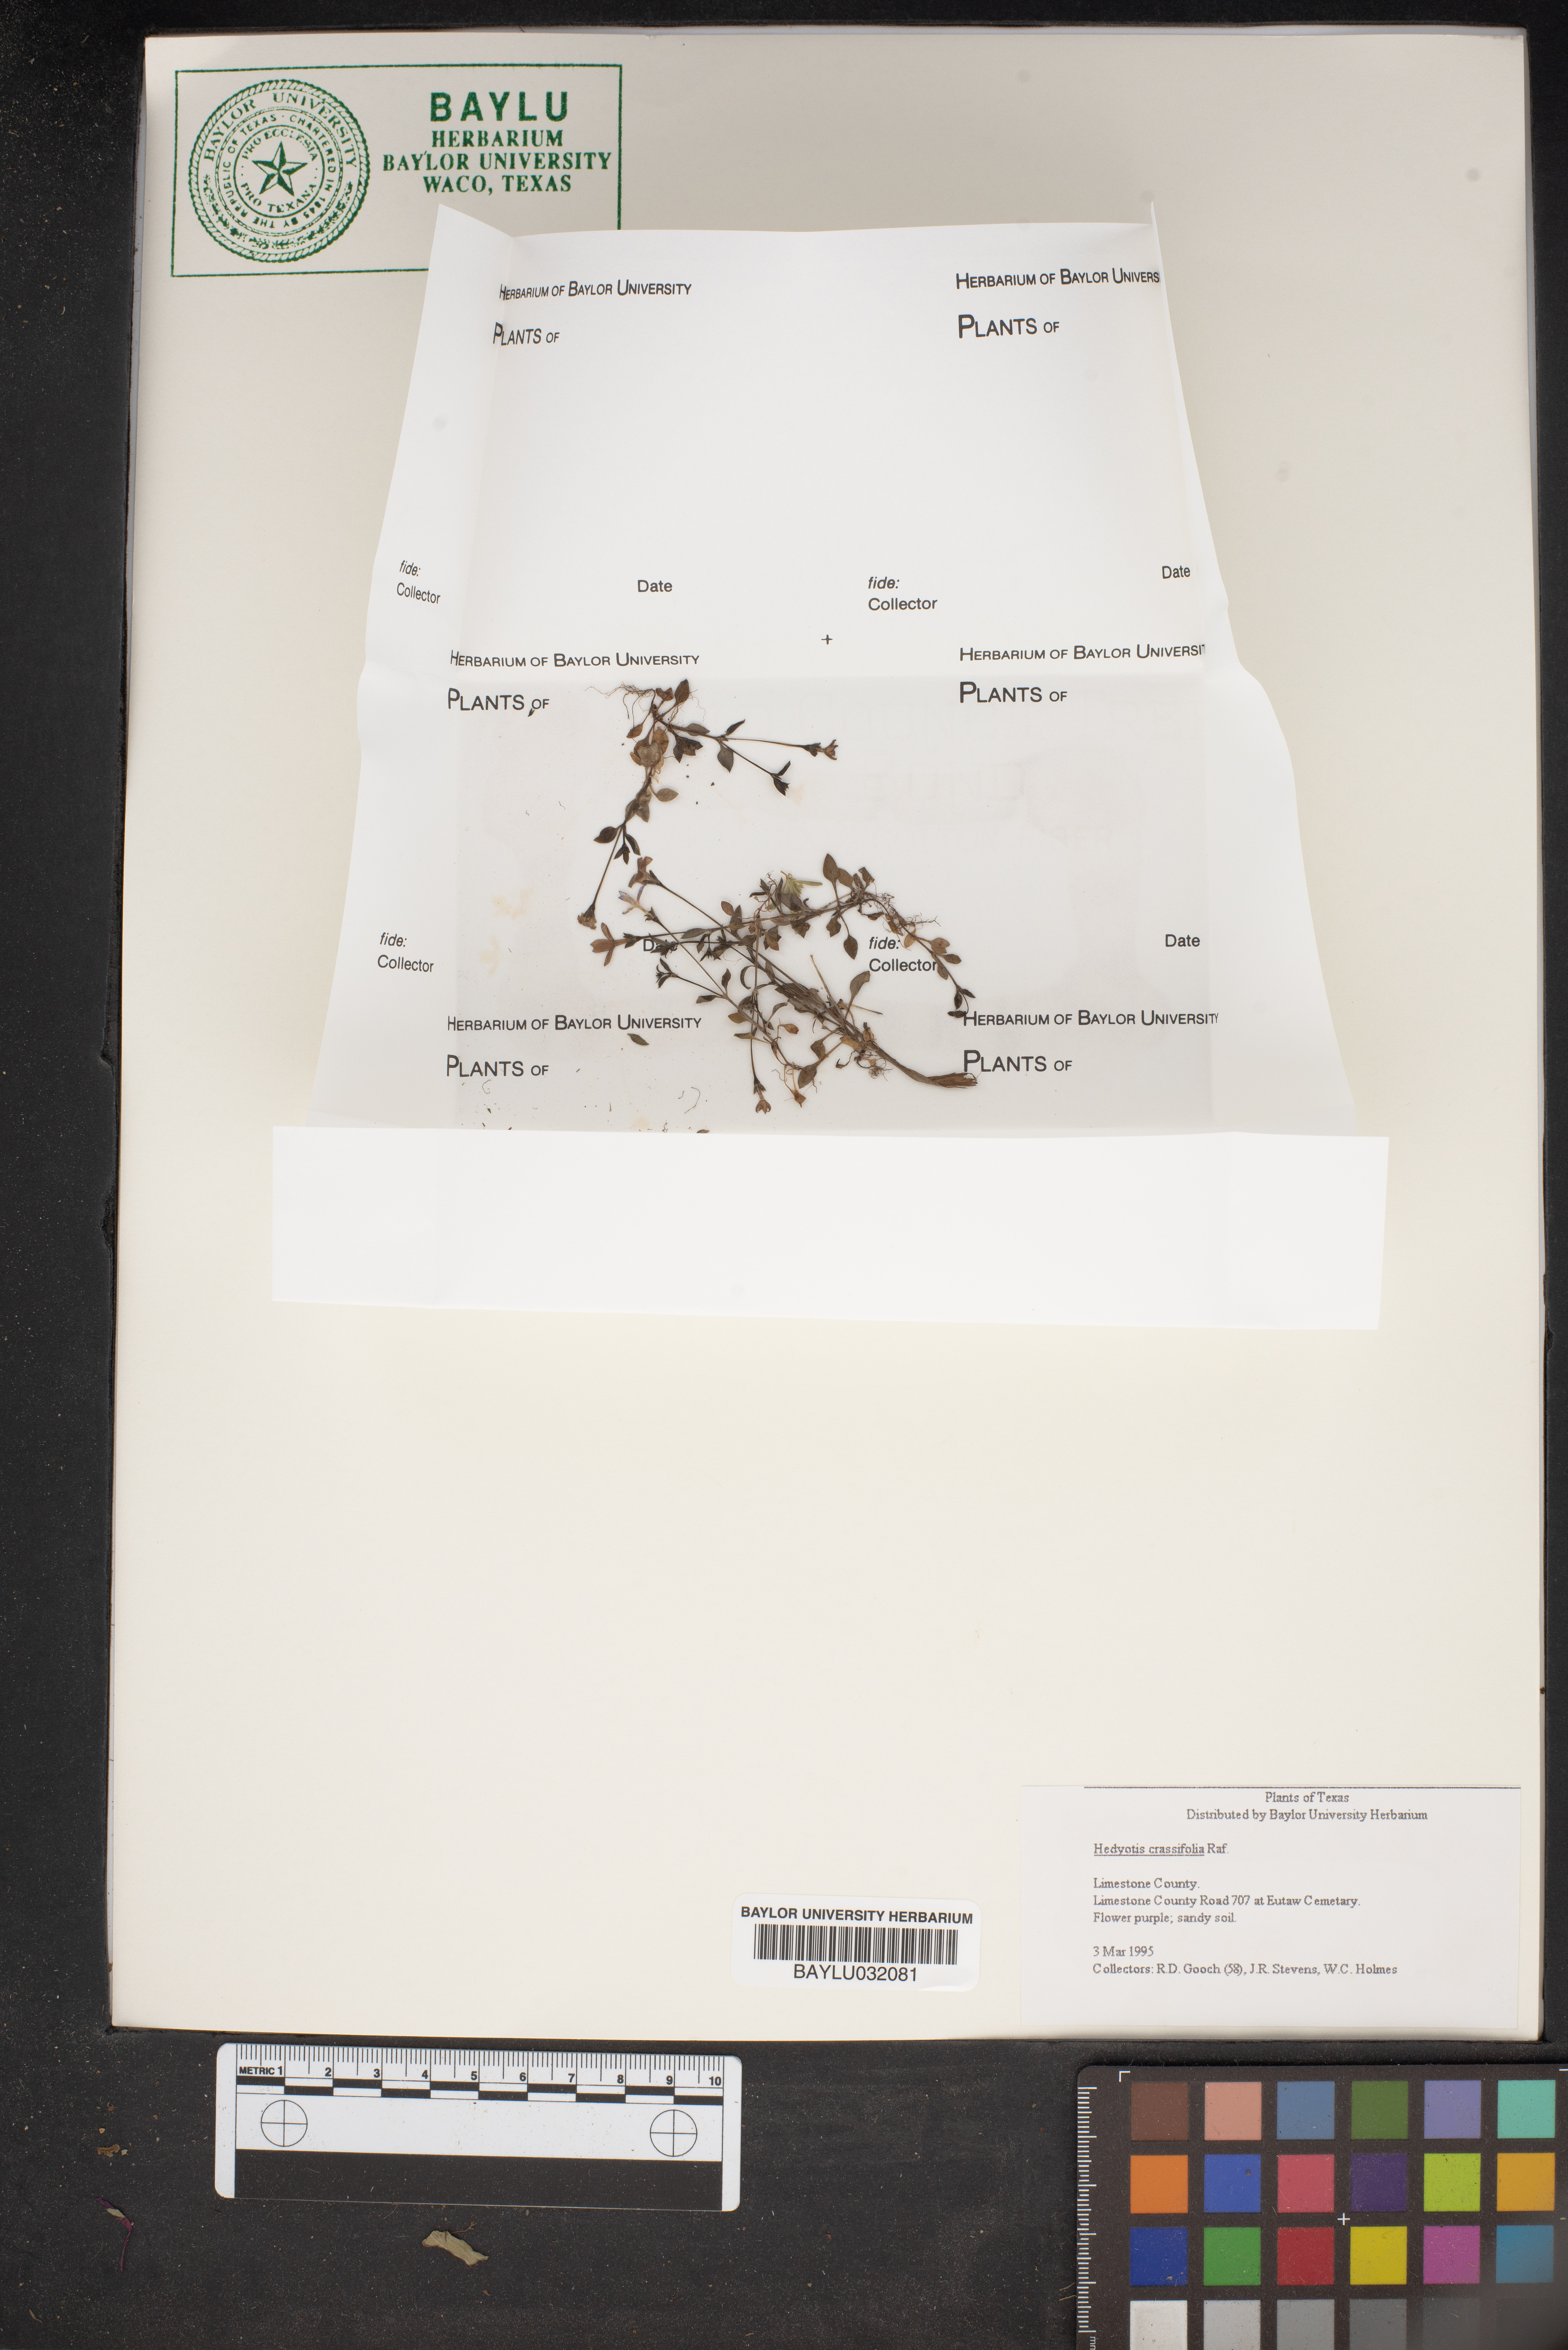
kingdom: Plantae
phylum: Tracheophyta
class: Magnoliopsida
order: Gentianales
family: Rubiaceae
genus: Houstonia
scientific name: Houstonia pusilla
